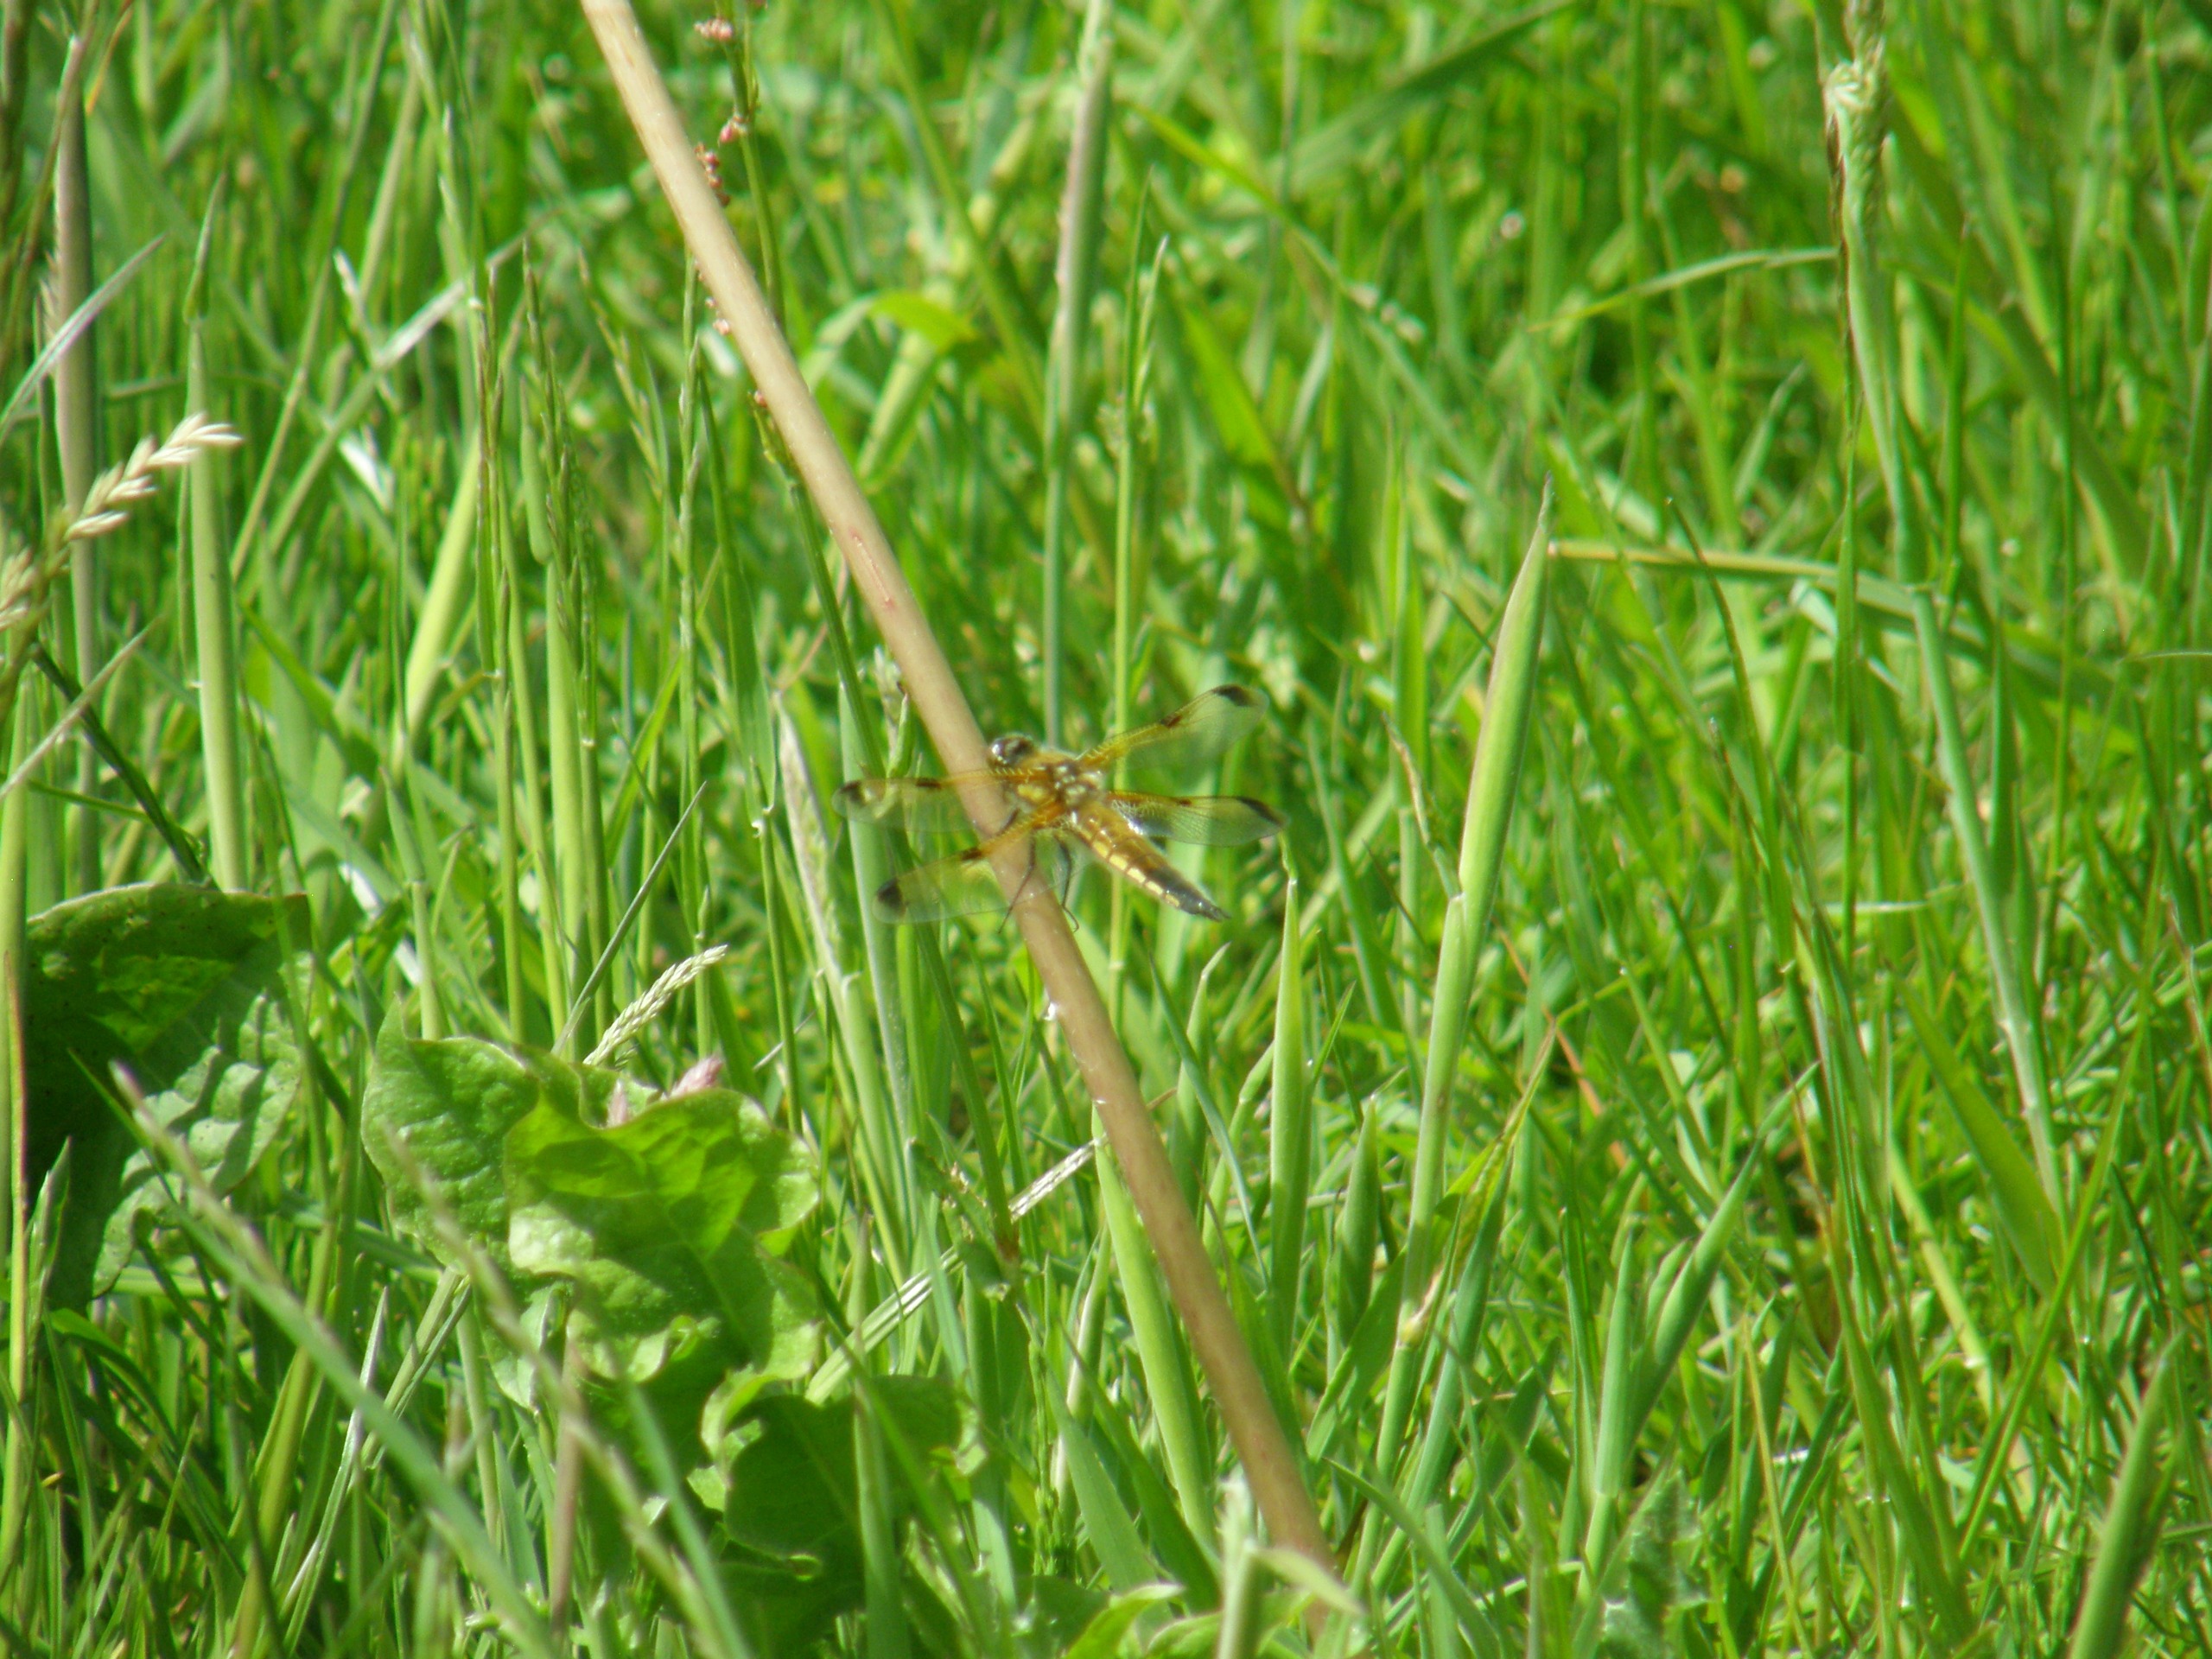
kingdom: Animalia
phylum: Arthropoda
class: Insecta
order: Odonata
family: Libellulidae
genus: Libellula
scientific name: Libellula quadrimaculata
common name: Fireplettet libel
